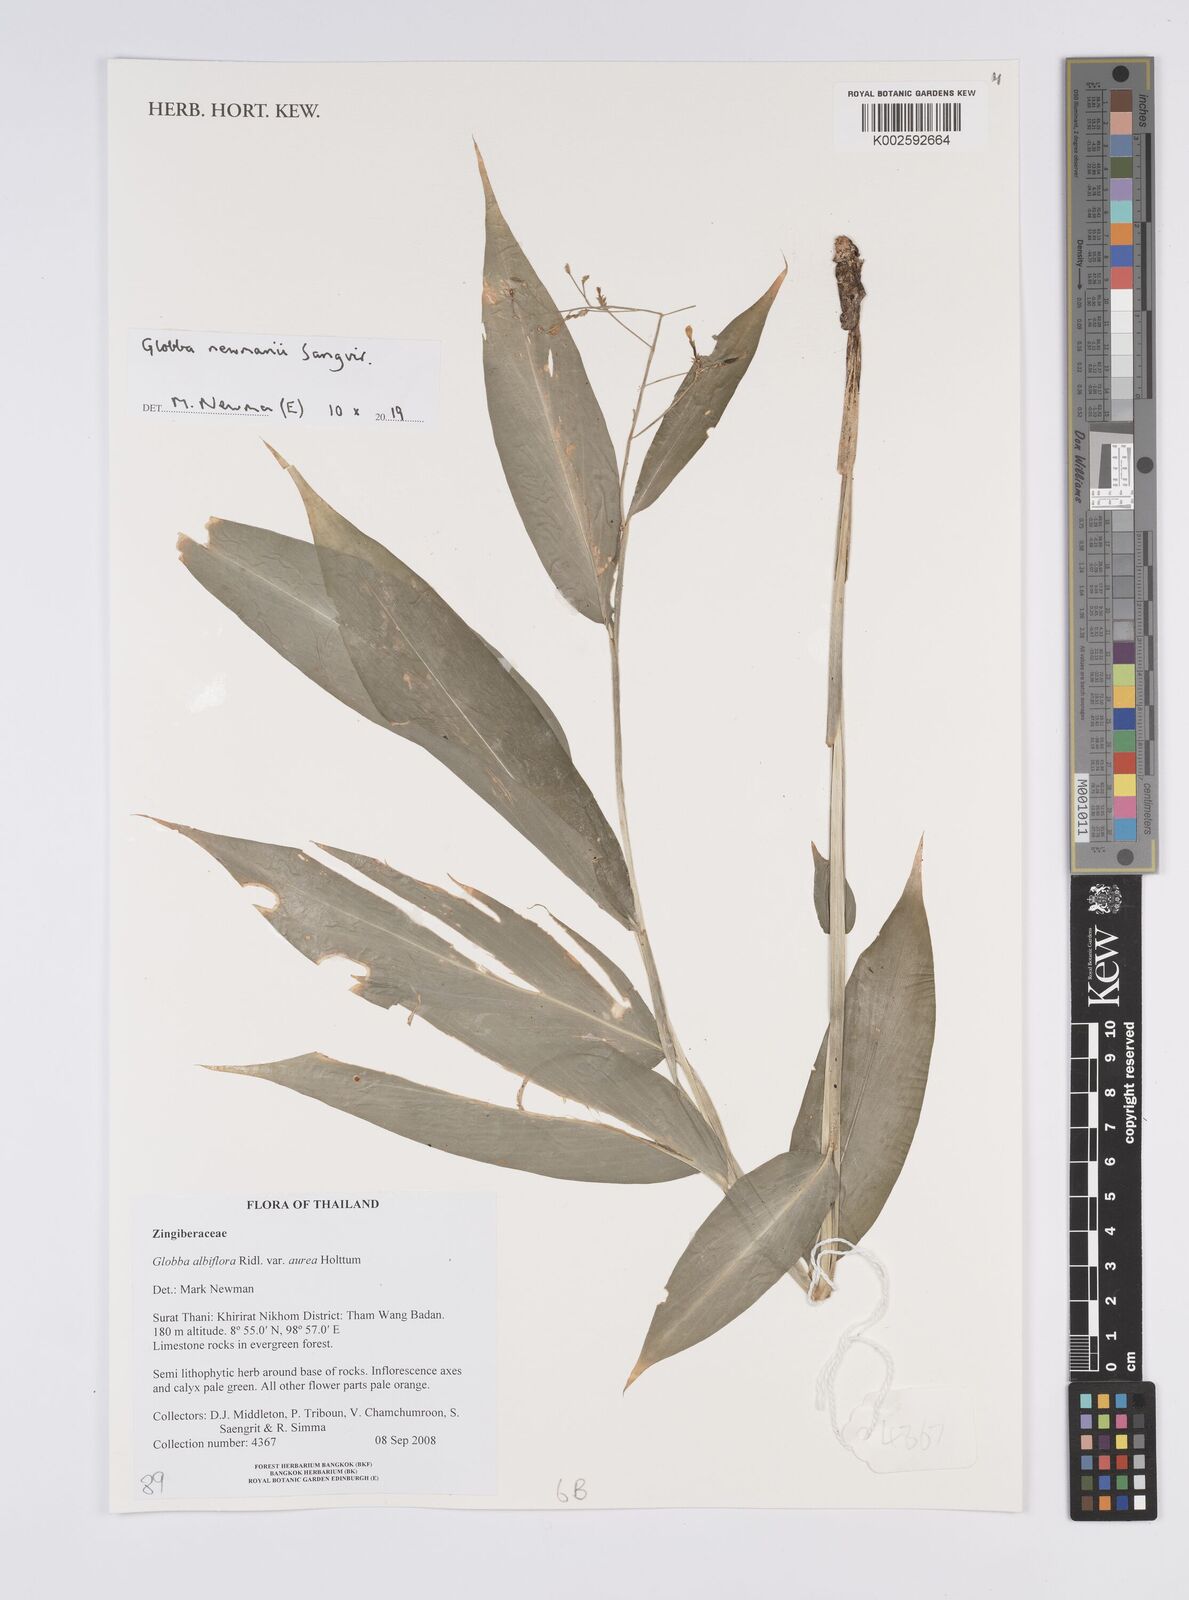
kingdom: Plantae
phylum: Tracheophyta
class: Liliopsida
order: Zingiberales
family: Zingiberaceae
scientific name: Zingiberaceae
